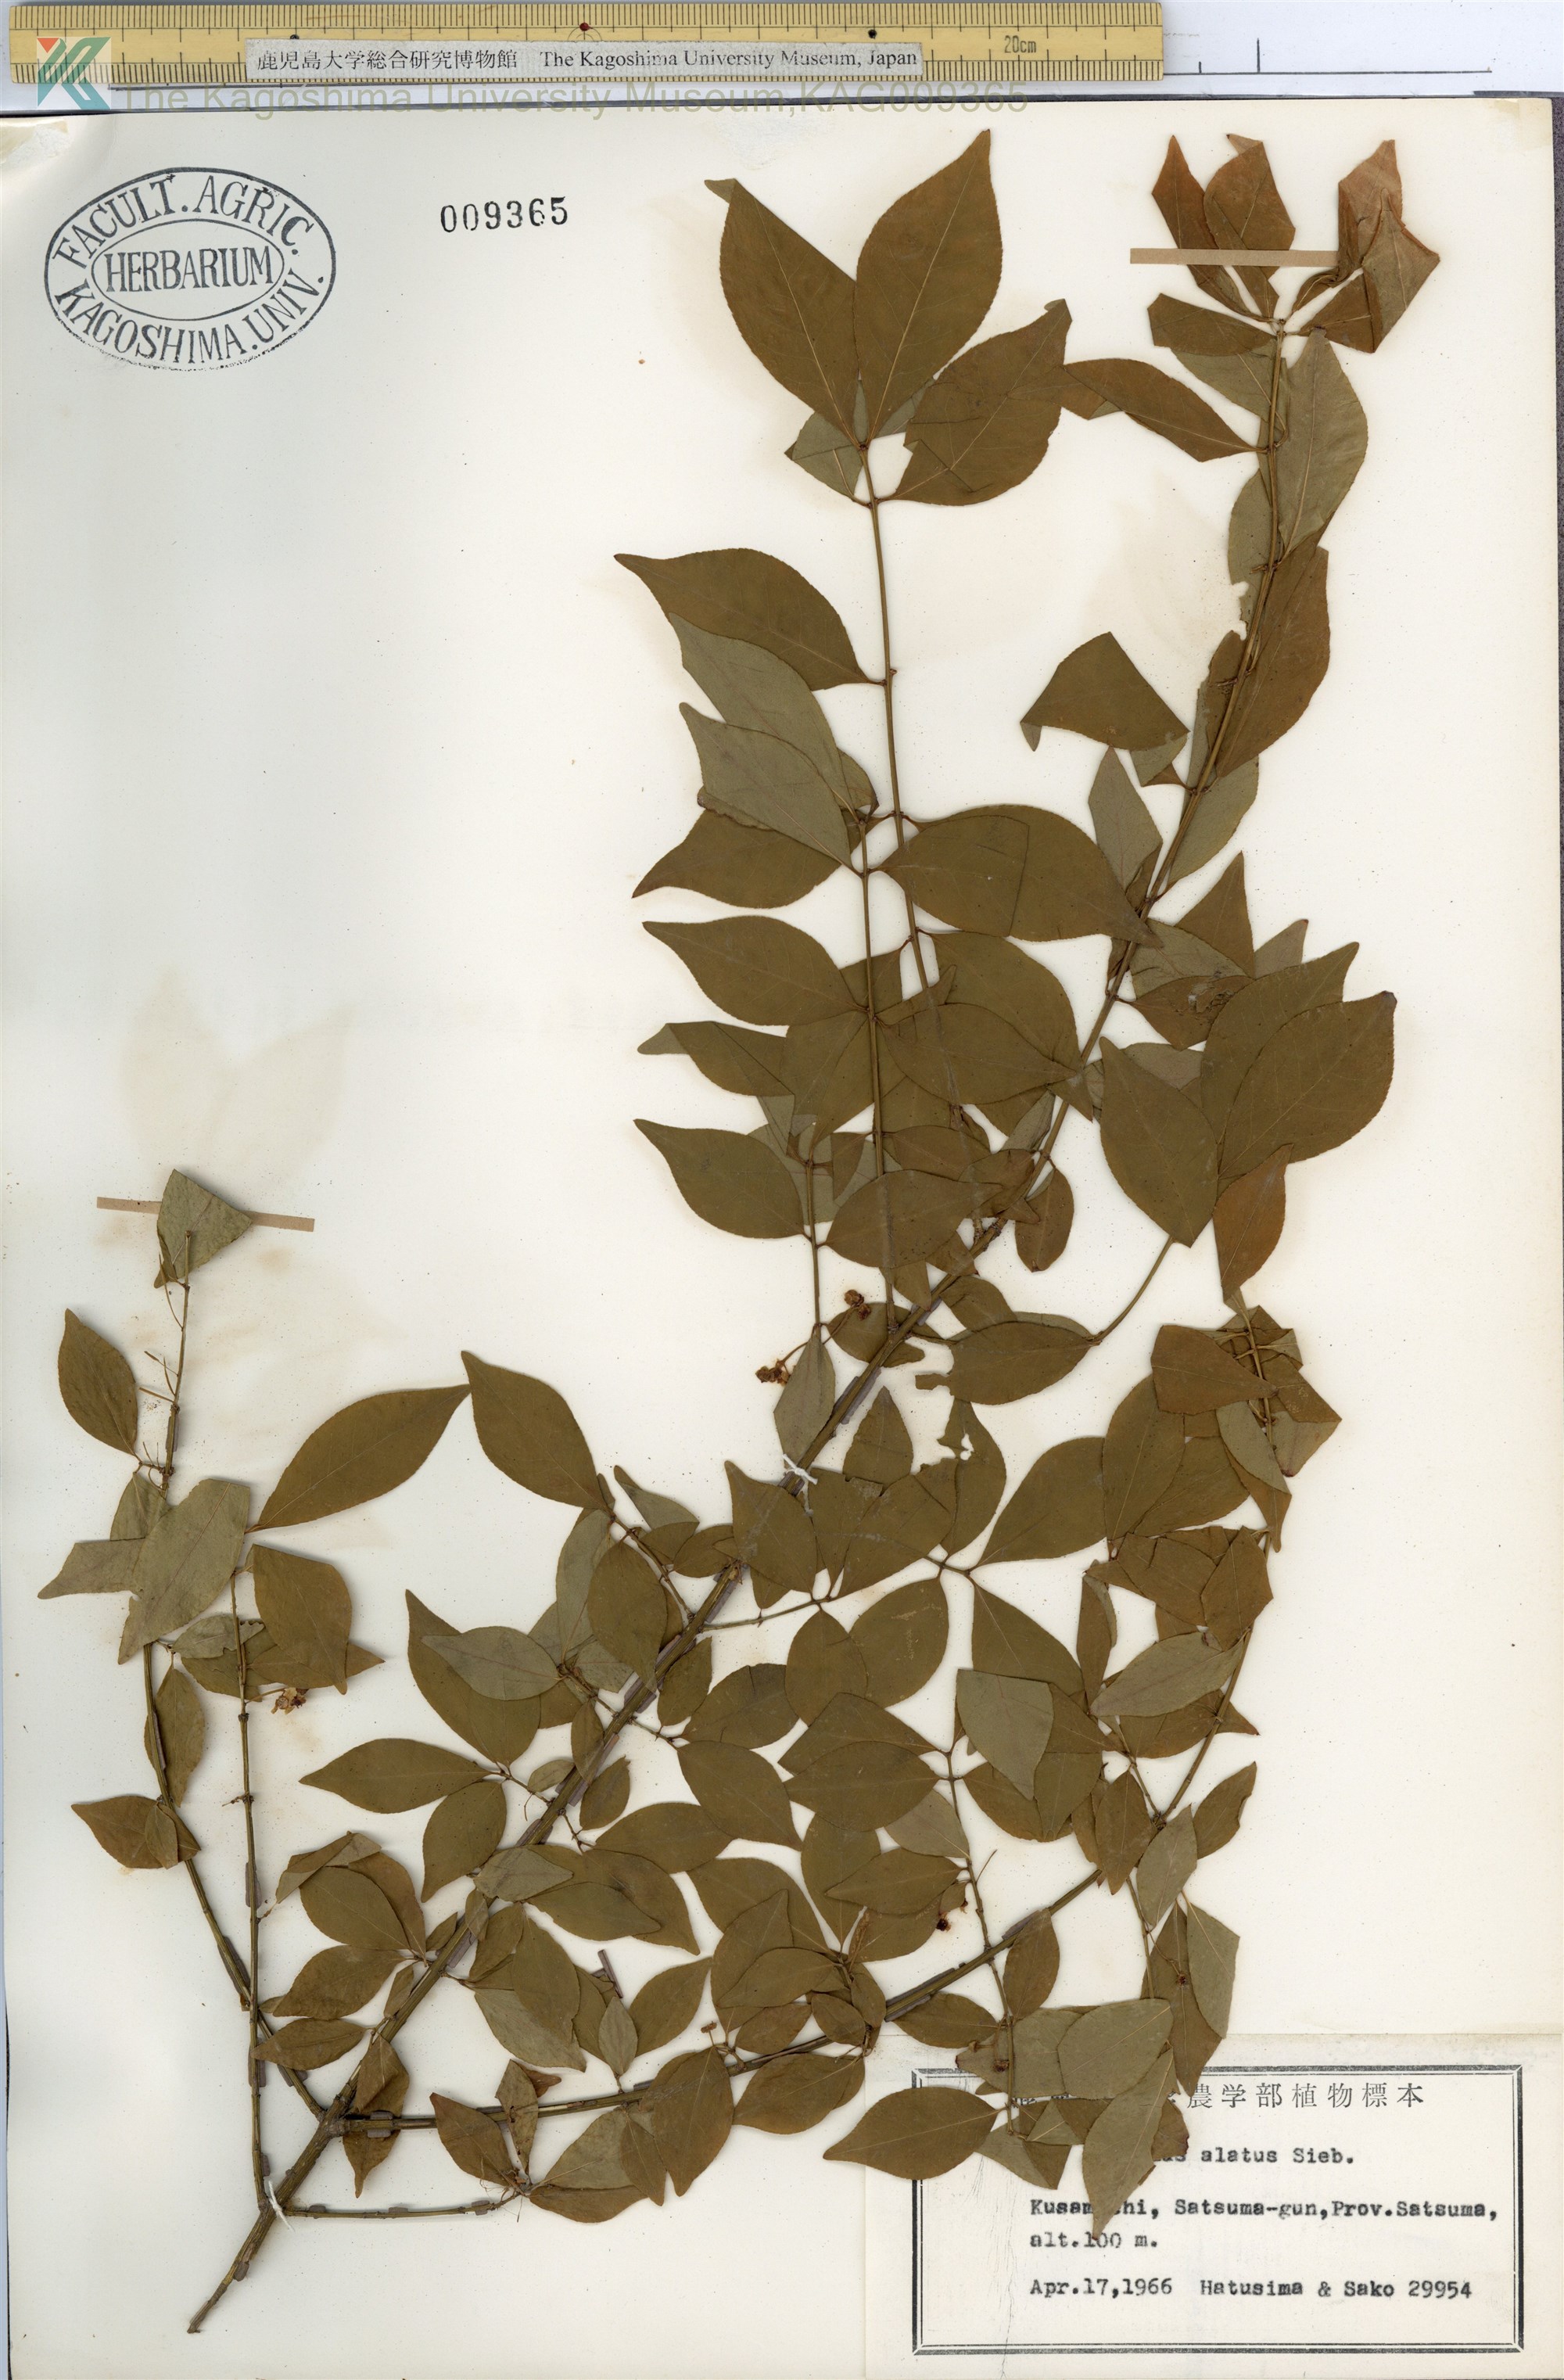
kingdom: Plantae
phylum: Tracheophyta
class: Magnoliopsida
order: Celastrales
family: Celastraceae
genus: Euonymus
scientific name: Euonymus alatus
